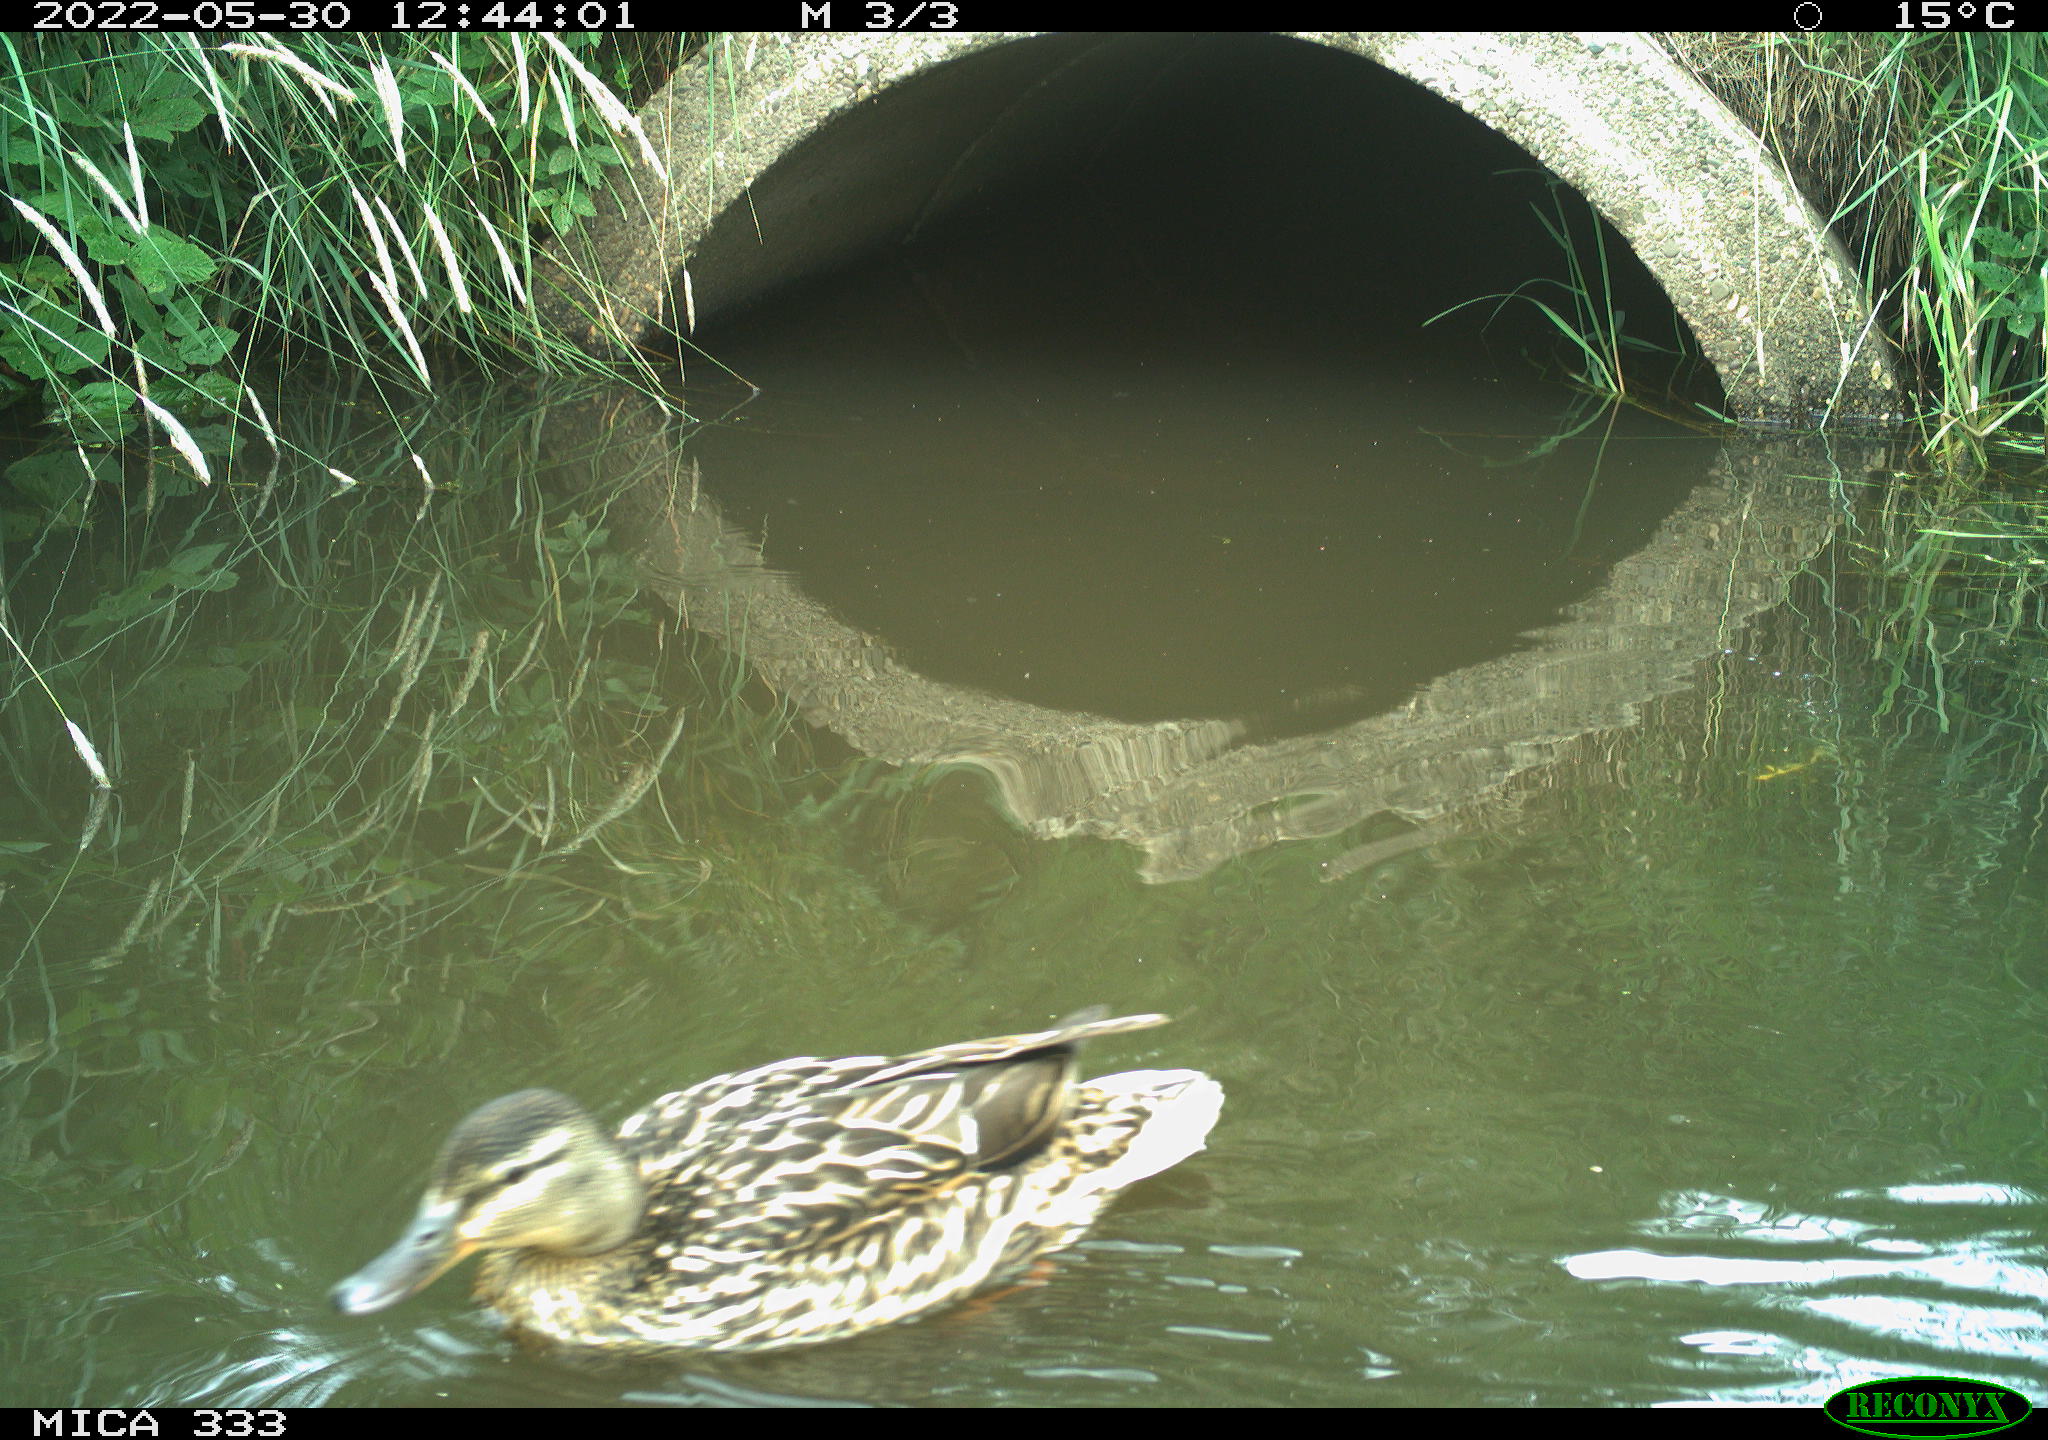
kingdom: Animalia
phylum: Chordata
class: Aves
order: Anseriformes
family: Anatidae
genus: Mareca
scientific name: Mareca strepera
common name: Gadwall
